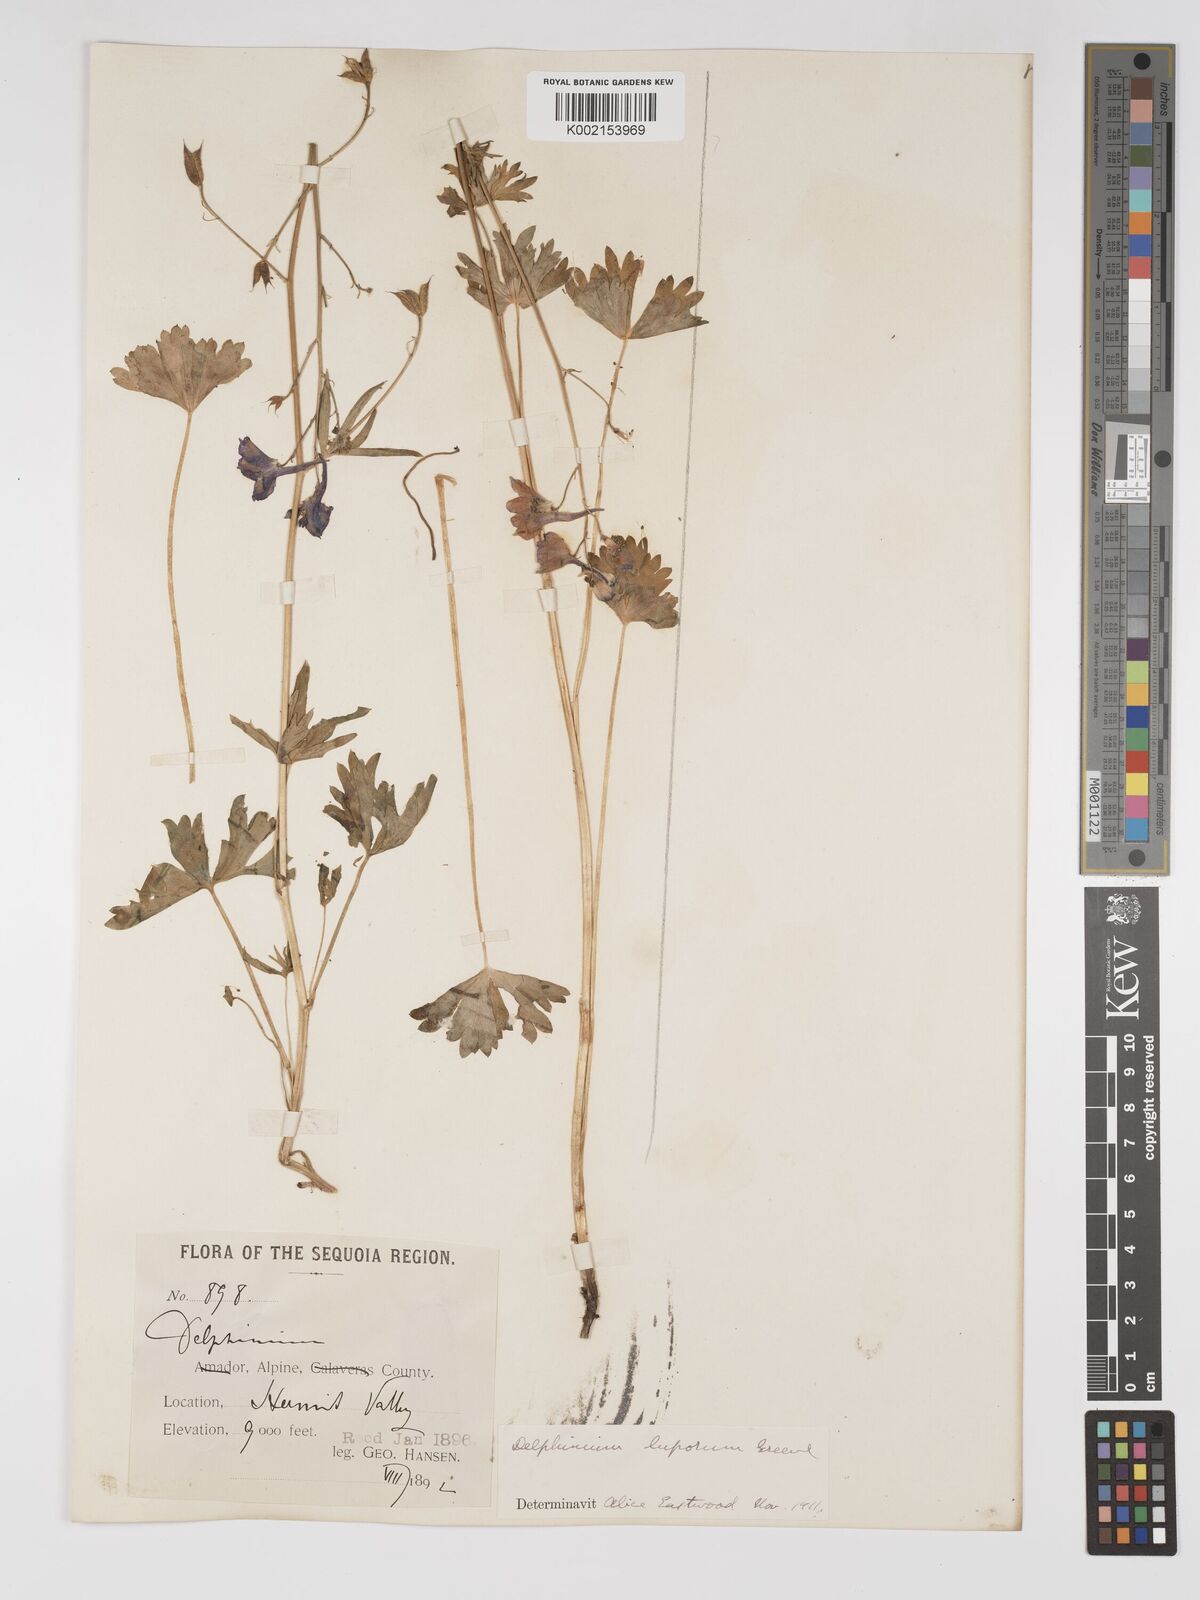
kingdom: Plantae
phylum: Tracheophyta
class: Magnoliopsida
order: Ranunculales
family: Ranunculaceae
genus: Delphinium
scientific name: Delphinium polycladon
